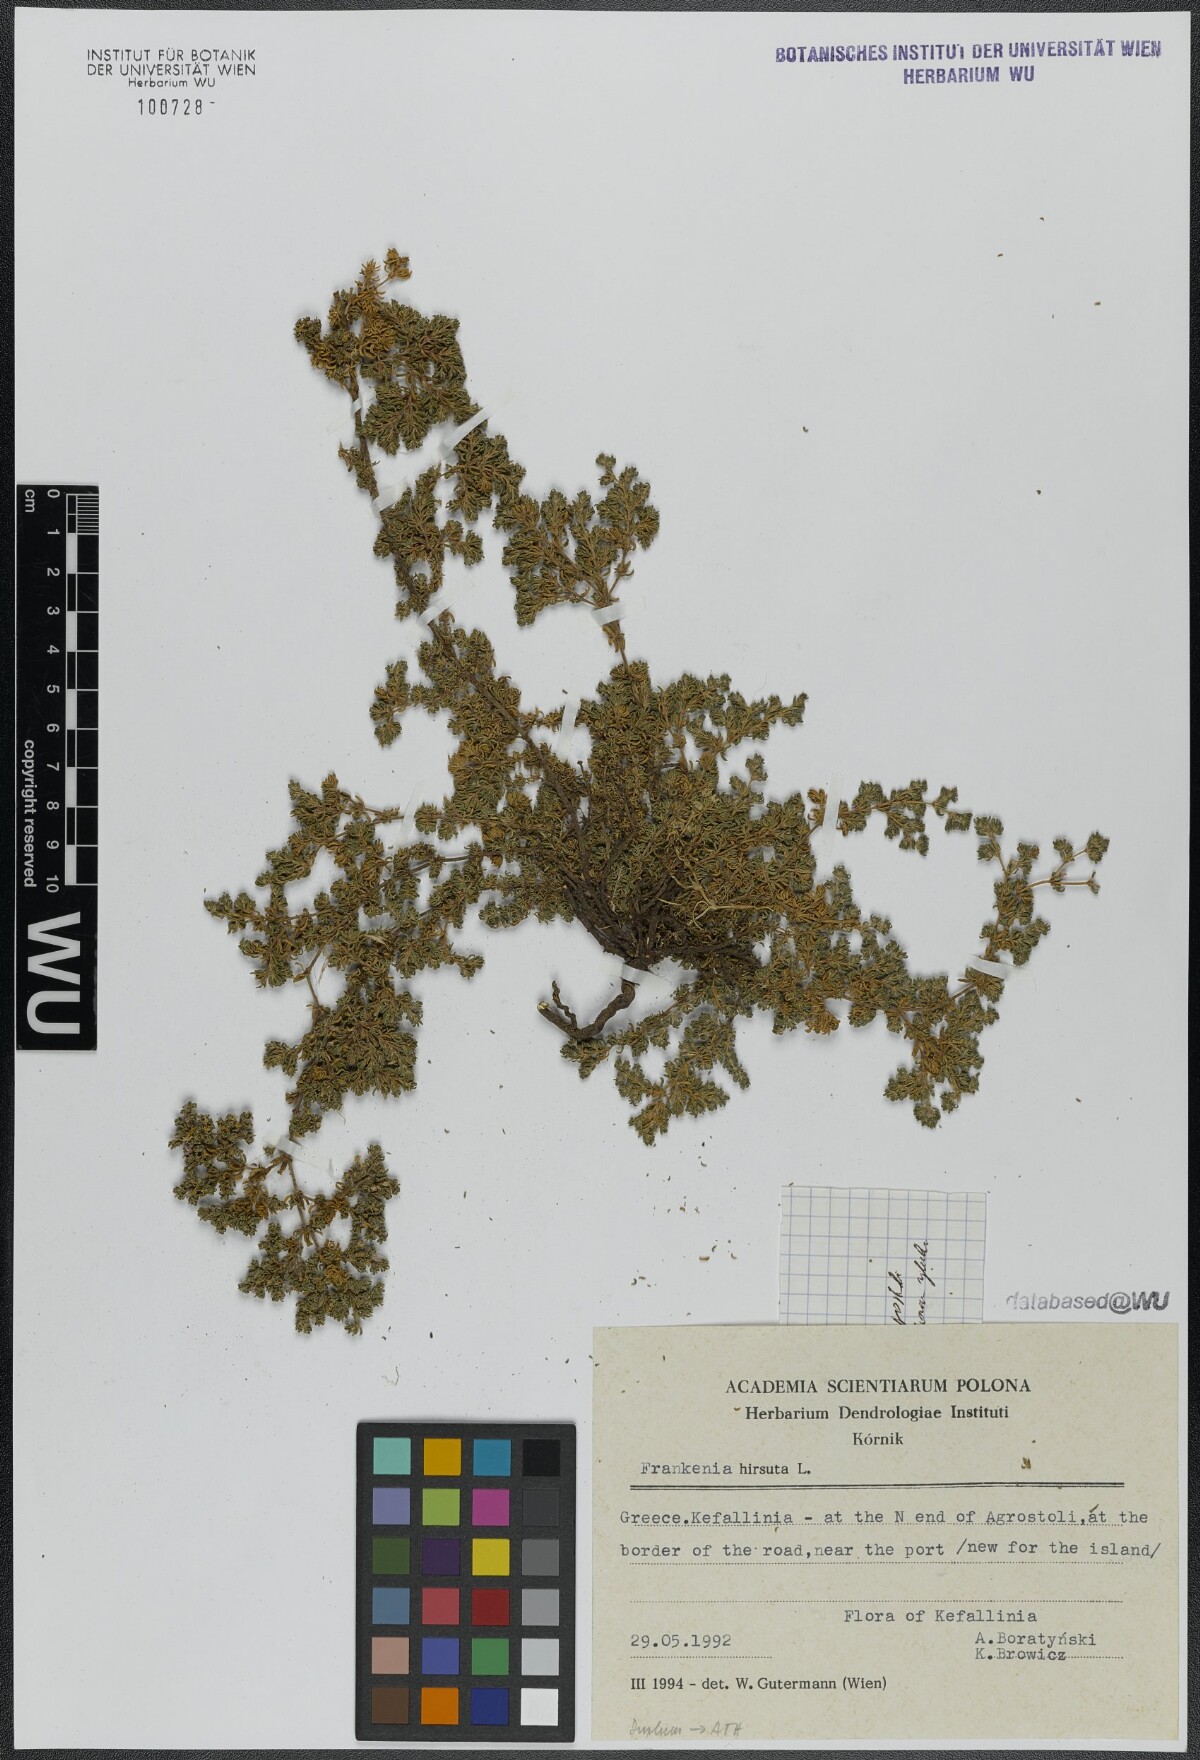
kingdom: Plantae
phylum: Tracheophyta
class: Magnoliopsida
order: Caryophyllales
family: Frankeniaceae
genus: Frankenia
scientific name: Frankenia hirsuta
